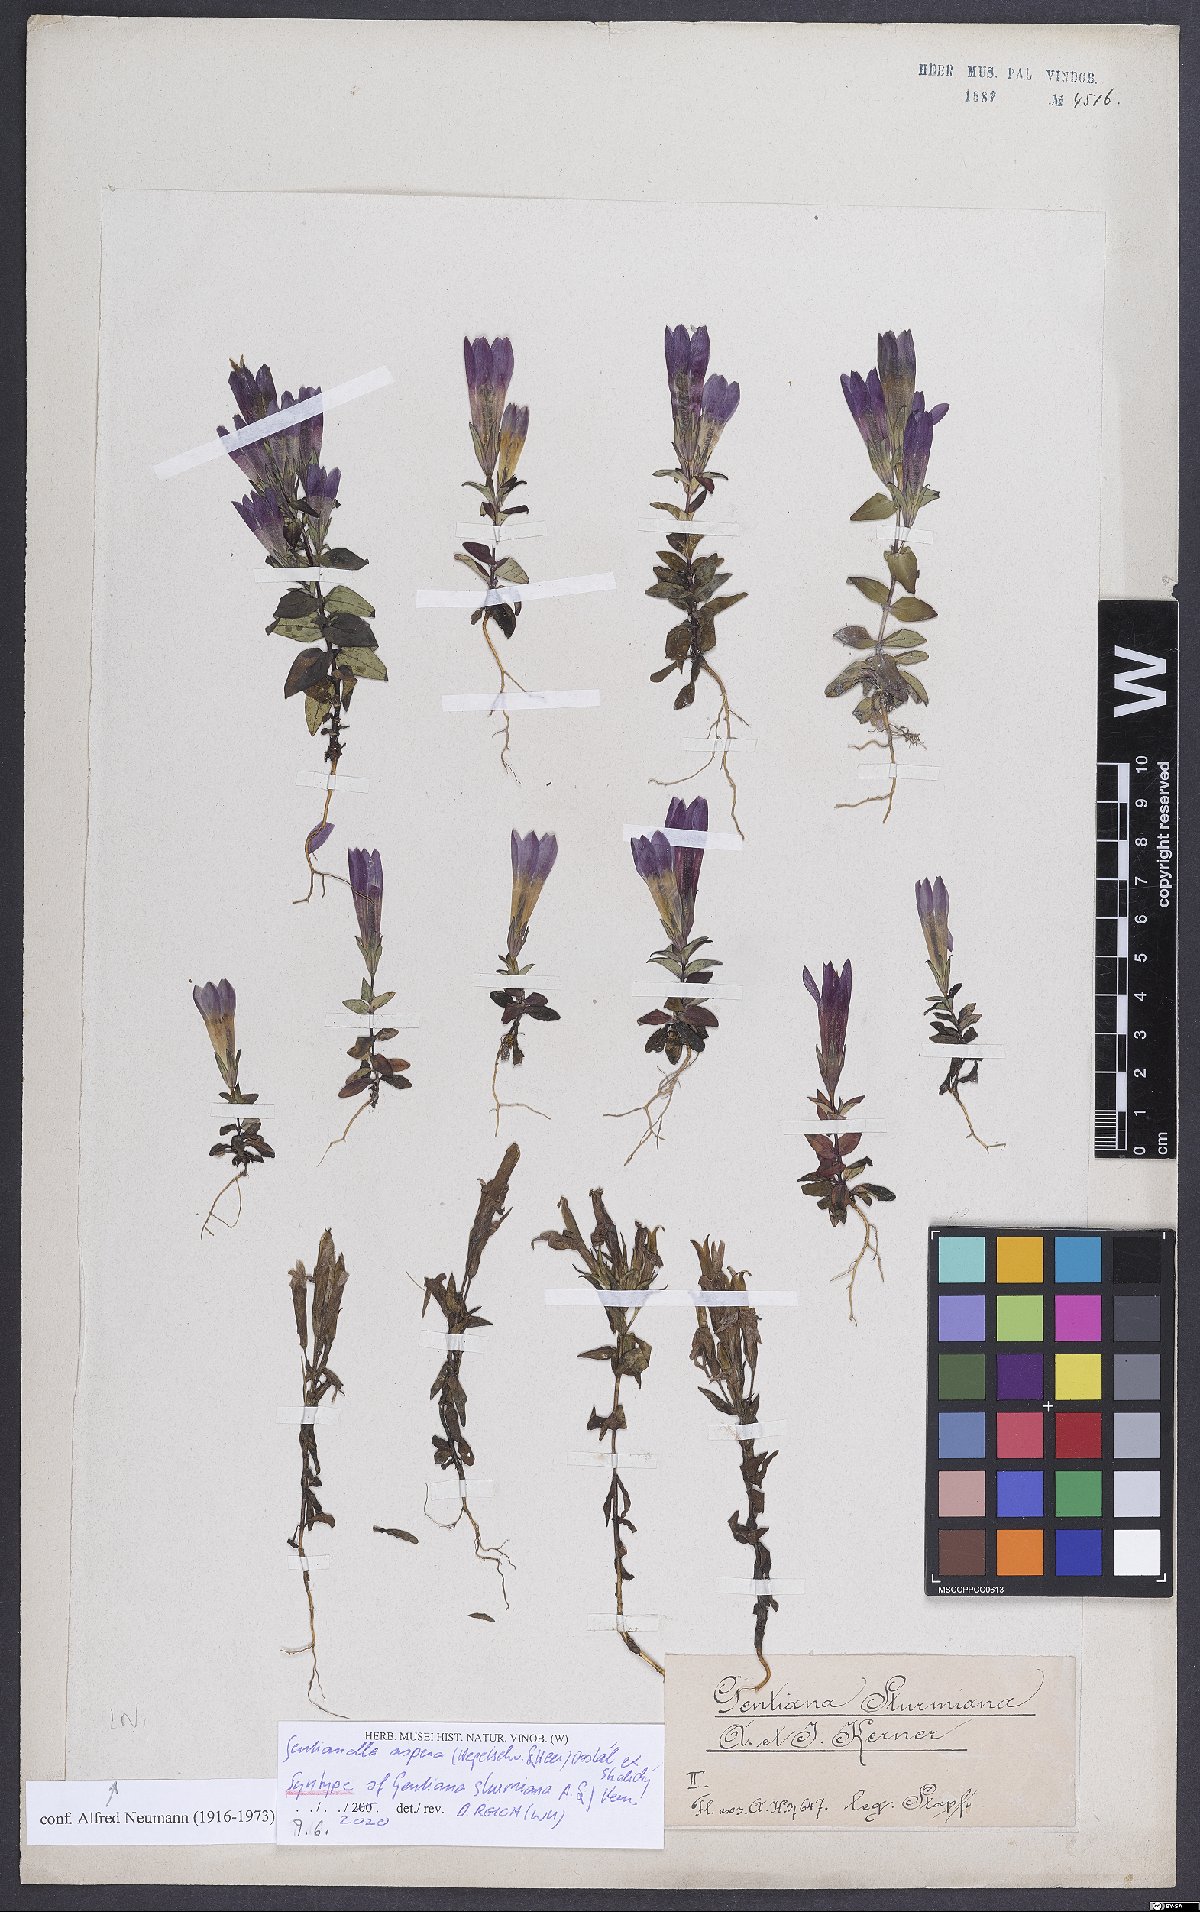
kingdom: Plantae
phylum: Tracheophyta
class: Magnoliopsida
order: Gentianales
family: Gentianaceae
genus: Gentianella
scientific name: Gentianella obtusifolia
